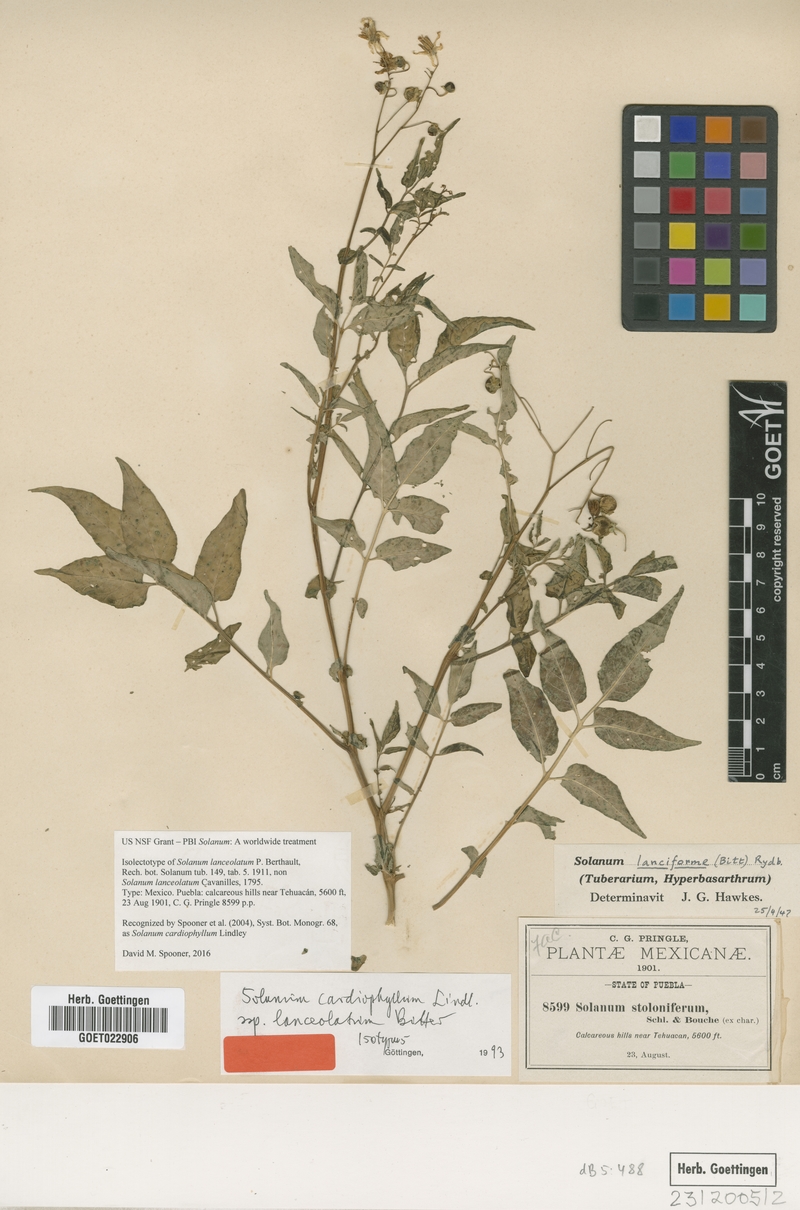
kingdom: Plantae
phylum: Tracheophyta
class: Magnoliopsida
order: Solanales
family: Solanaceae
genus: Solanum
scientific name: Solanum cardiophyllum
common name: Heartleaf horsenettle
